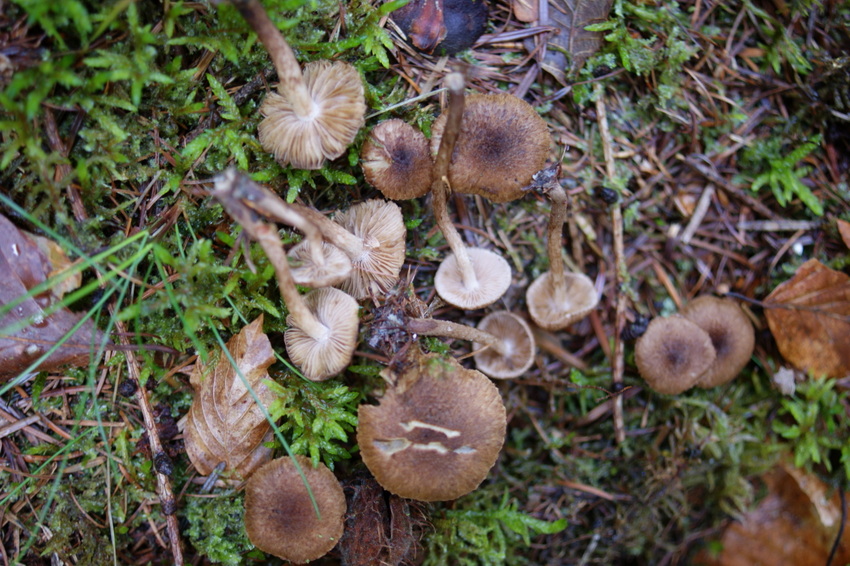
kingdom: Fungi
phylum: Basidiomycota
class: Agaricomycetes
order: Agaricales
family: Inocybaceae
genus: Inocybe
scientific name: Inocybe lanuginosa
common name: uldskællet trævlhat
